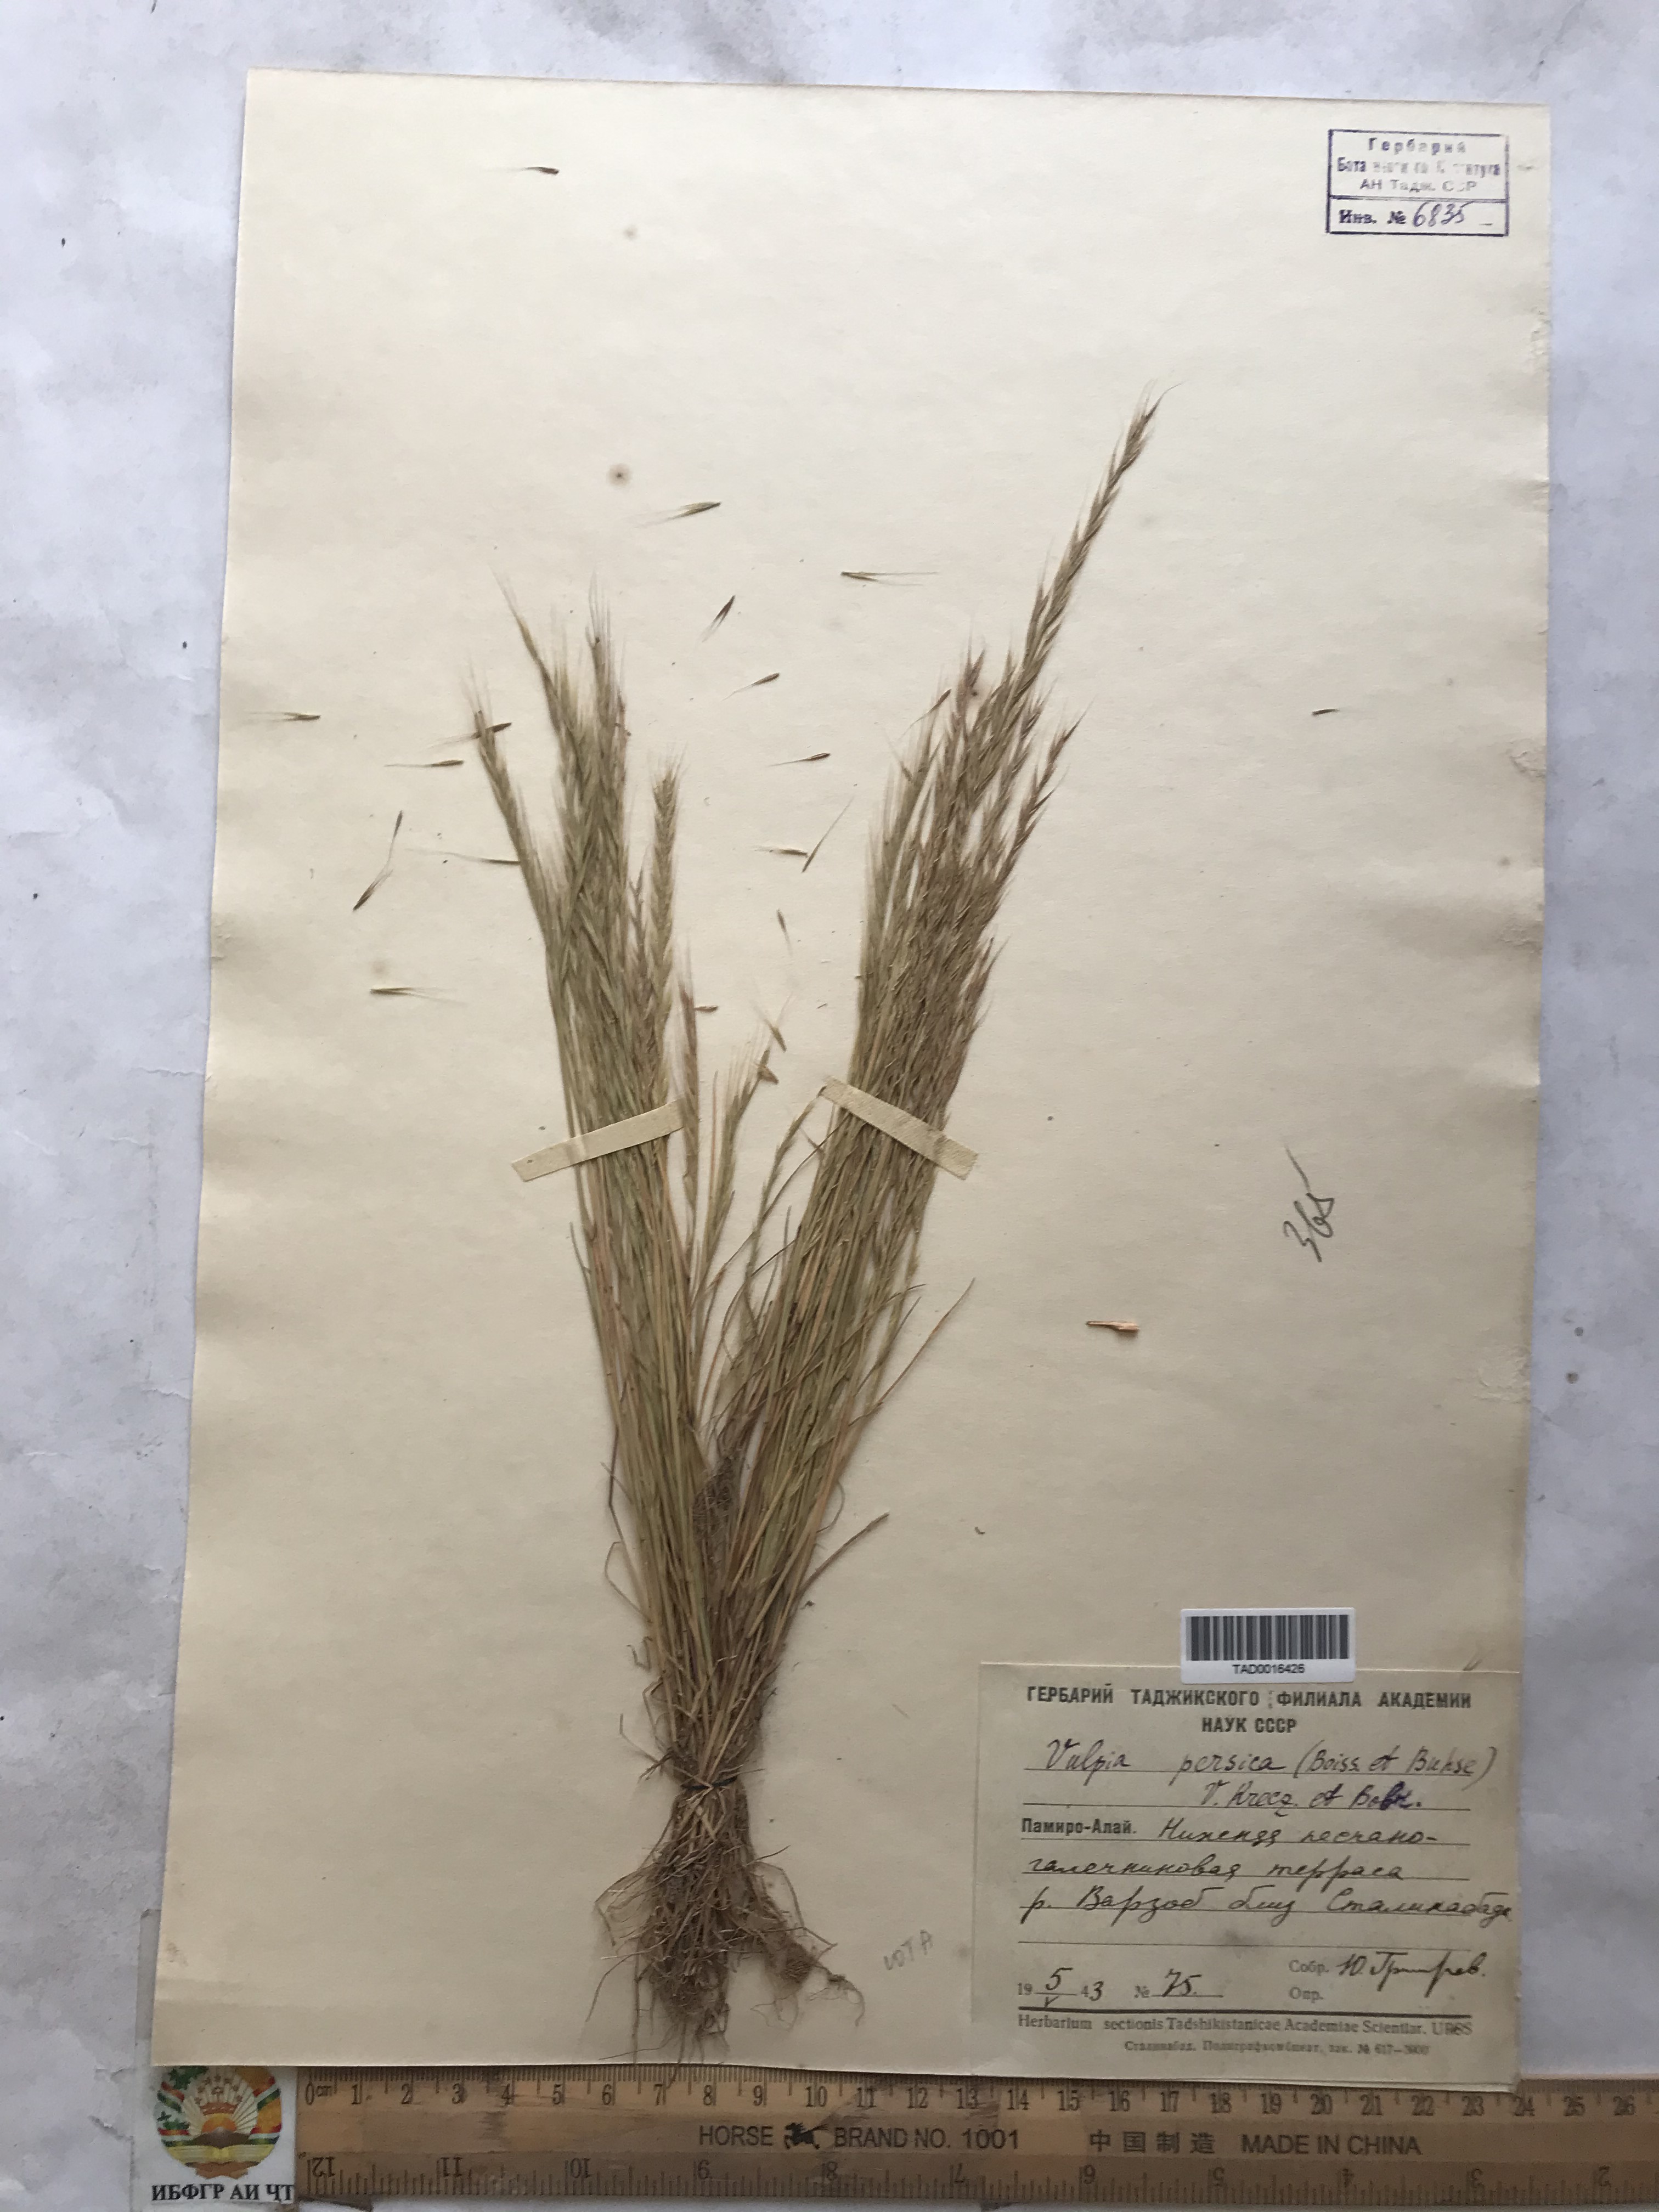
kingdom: Plantae
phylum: Tracheophyta
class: Liliopsida
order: Poales
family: Poaceae
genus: Festuca
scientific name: Festuca Vulpia persica
